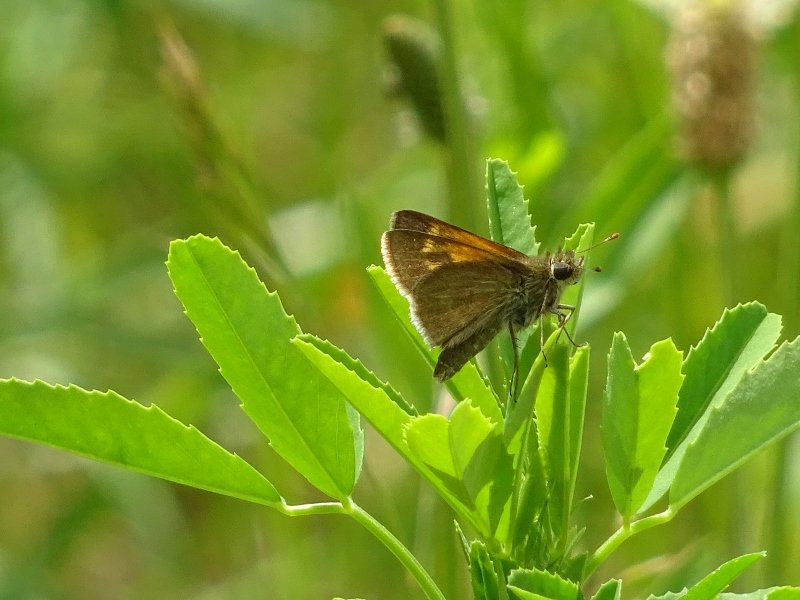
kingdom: Animalia
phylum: Arthropoda
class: Insecta
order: Lepidoptera
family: Hesperiidae
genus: Polites
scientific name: Polites themistocles
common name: Tawny-edged Skipper
